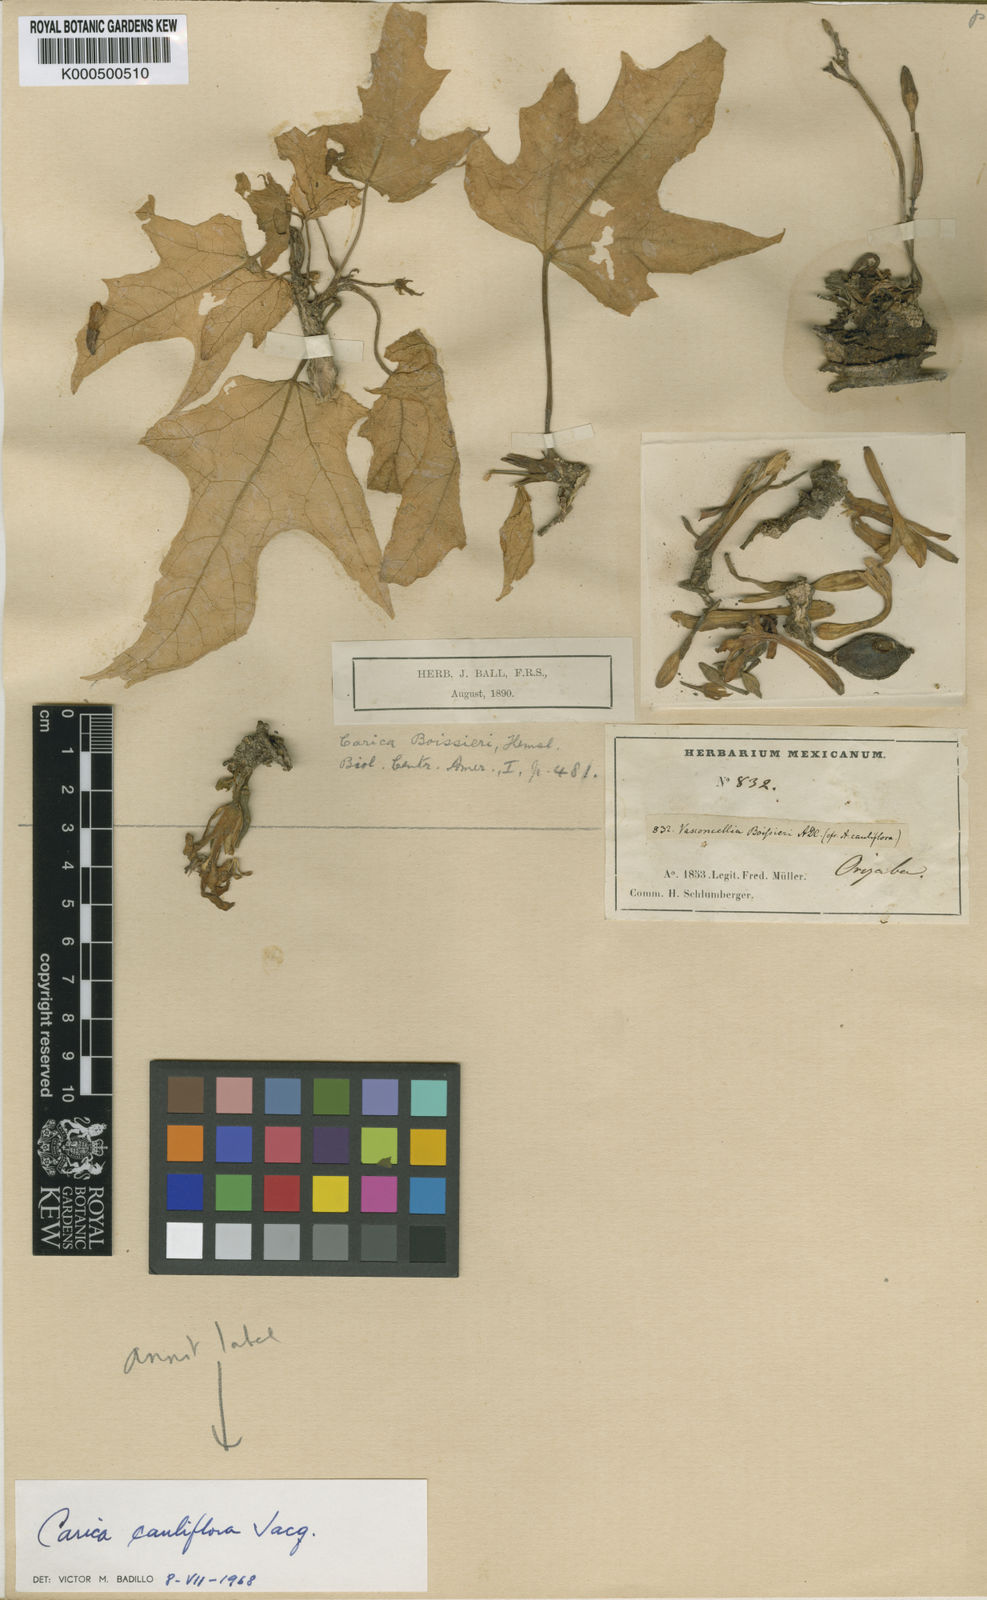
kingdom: Plantae
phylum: Tracheophyta
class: Magnoliopsida
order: Brassicales
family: Caricaceae
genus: Vasconcellea
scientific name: Vasconcellea cauliflora
